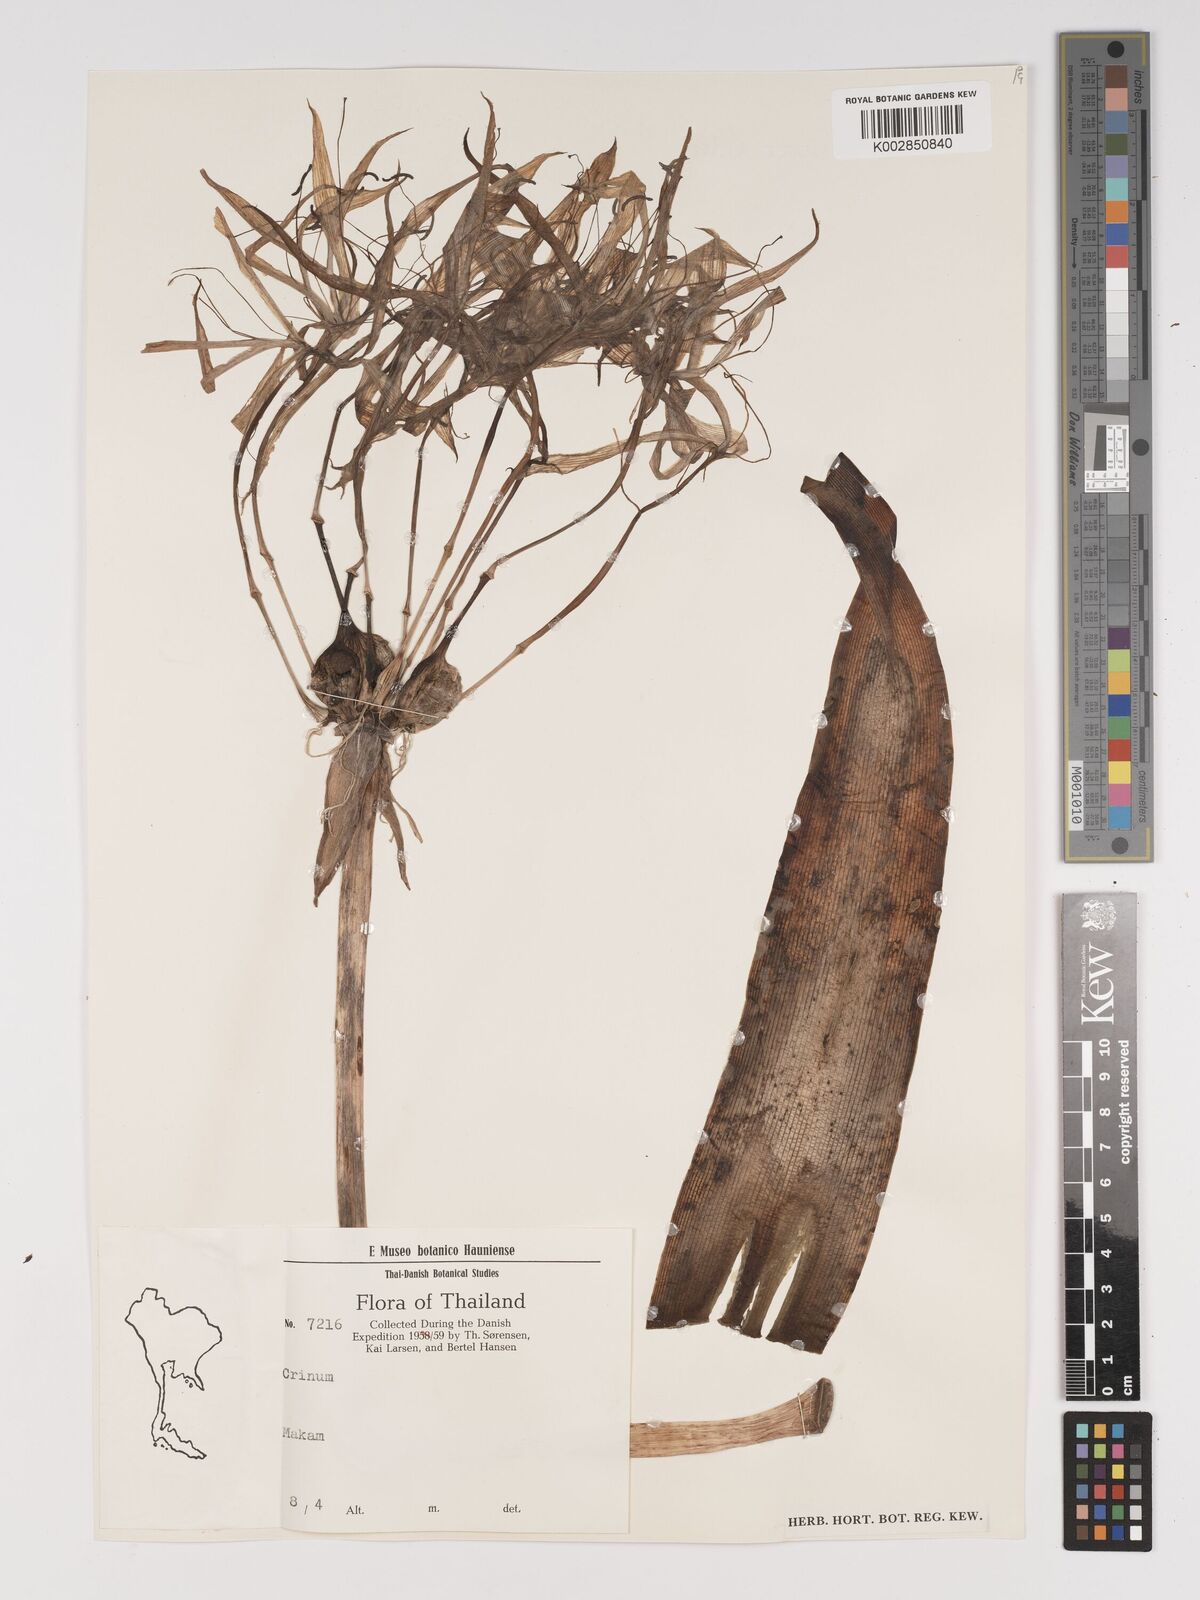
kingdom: Plantae
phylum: Tracheophyta
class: Liliopsida
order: Asparagales
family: Amaryllidaceae
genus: Crinum
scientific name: Crinum
